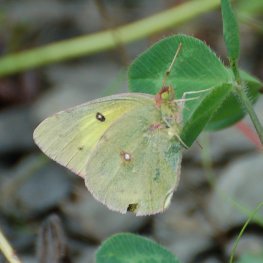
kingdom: Animalia
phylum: Arthropoda
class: Insecta
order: Lepidoptera
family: Pieridae
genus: Colias
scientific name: Colias eurytheme
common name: Orange Sulphur
